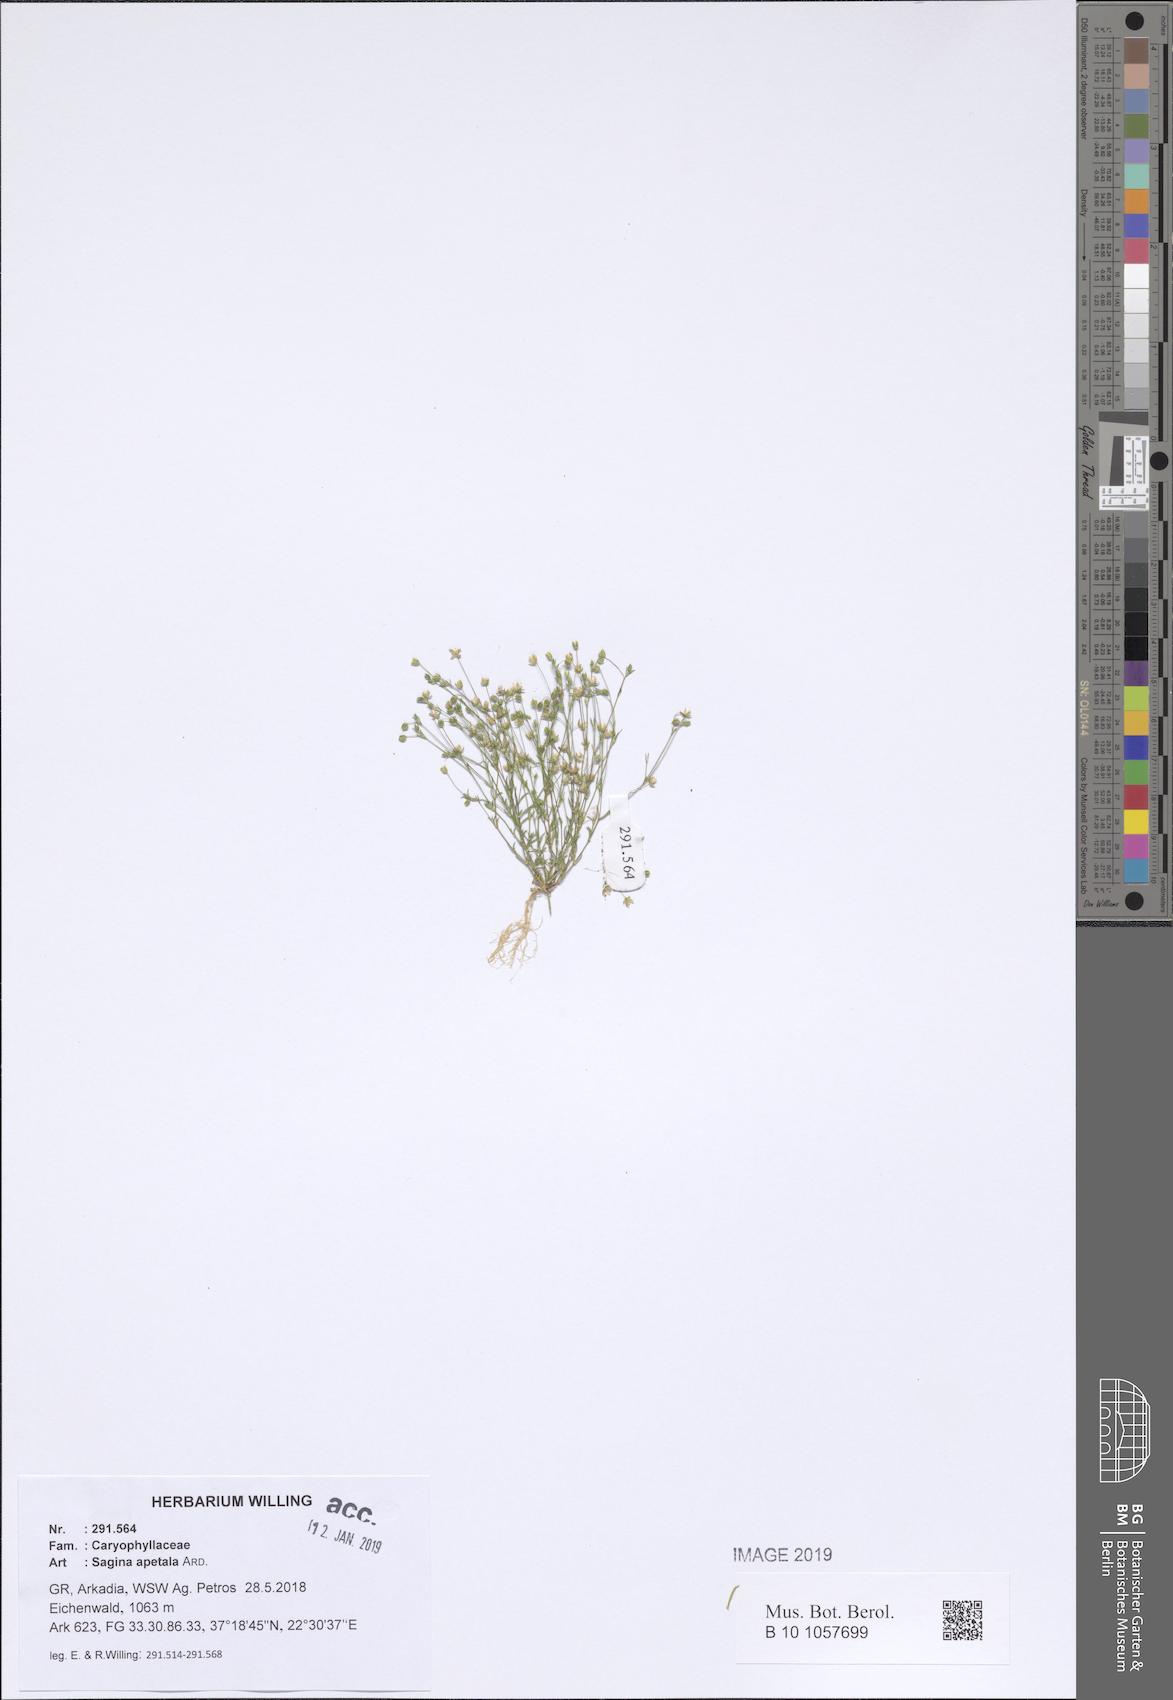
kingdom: Plantae
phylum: Tracheophyta
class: Magnoliopsida
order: Caryophyllales
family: Caryophyllaceae
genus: Sagina
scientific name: Sagina apetala
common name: Annual pearlwort
